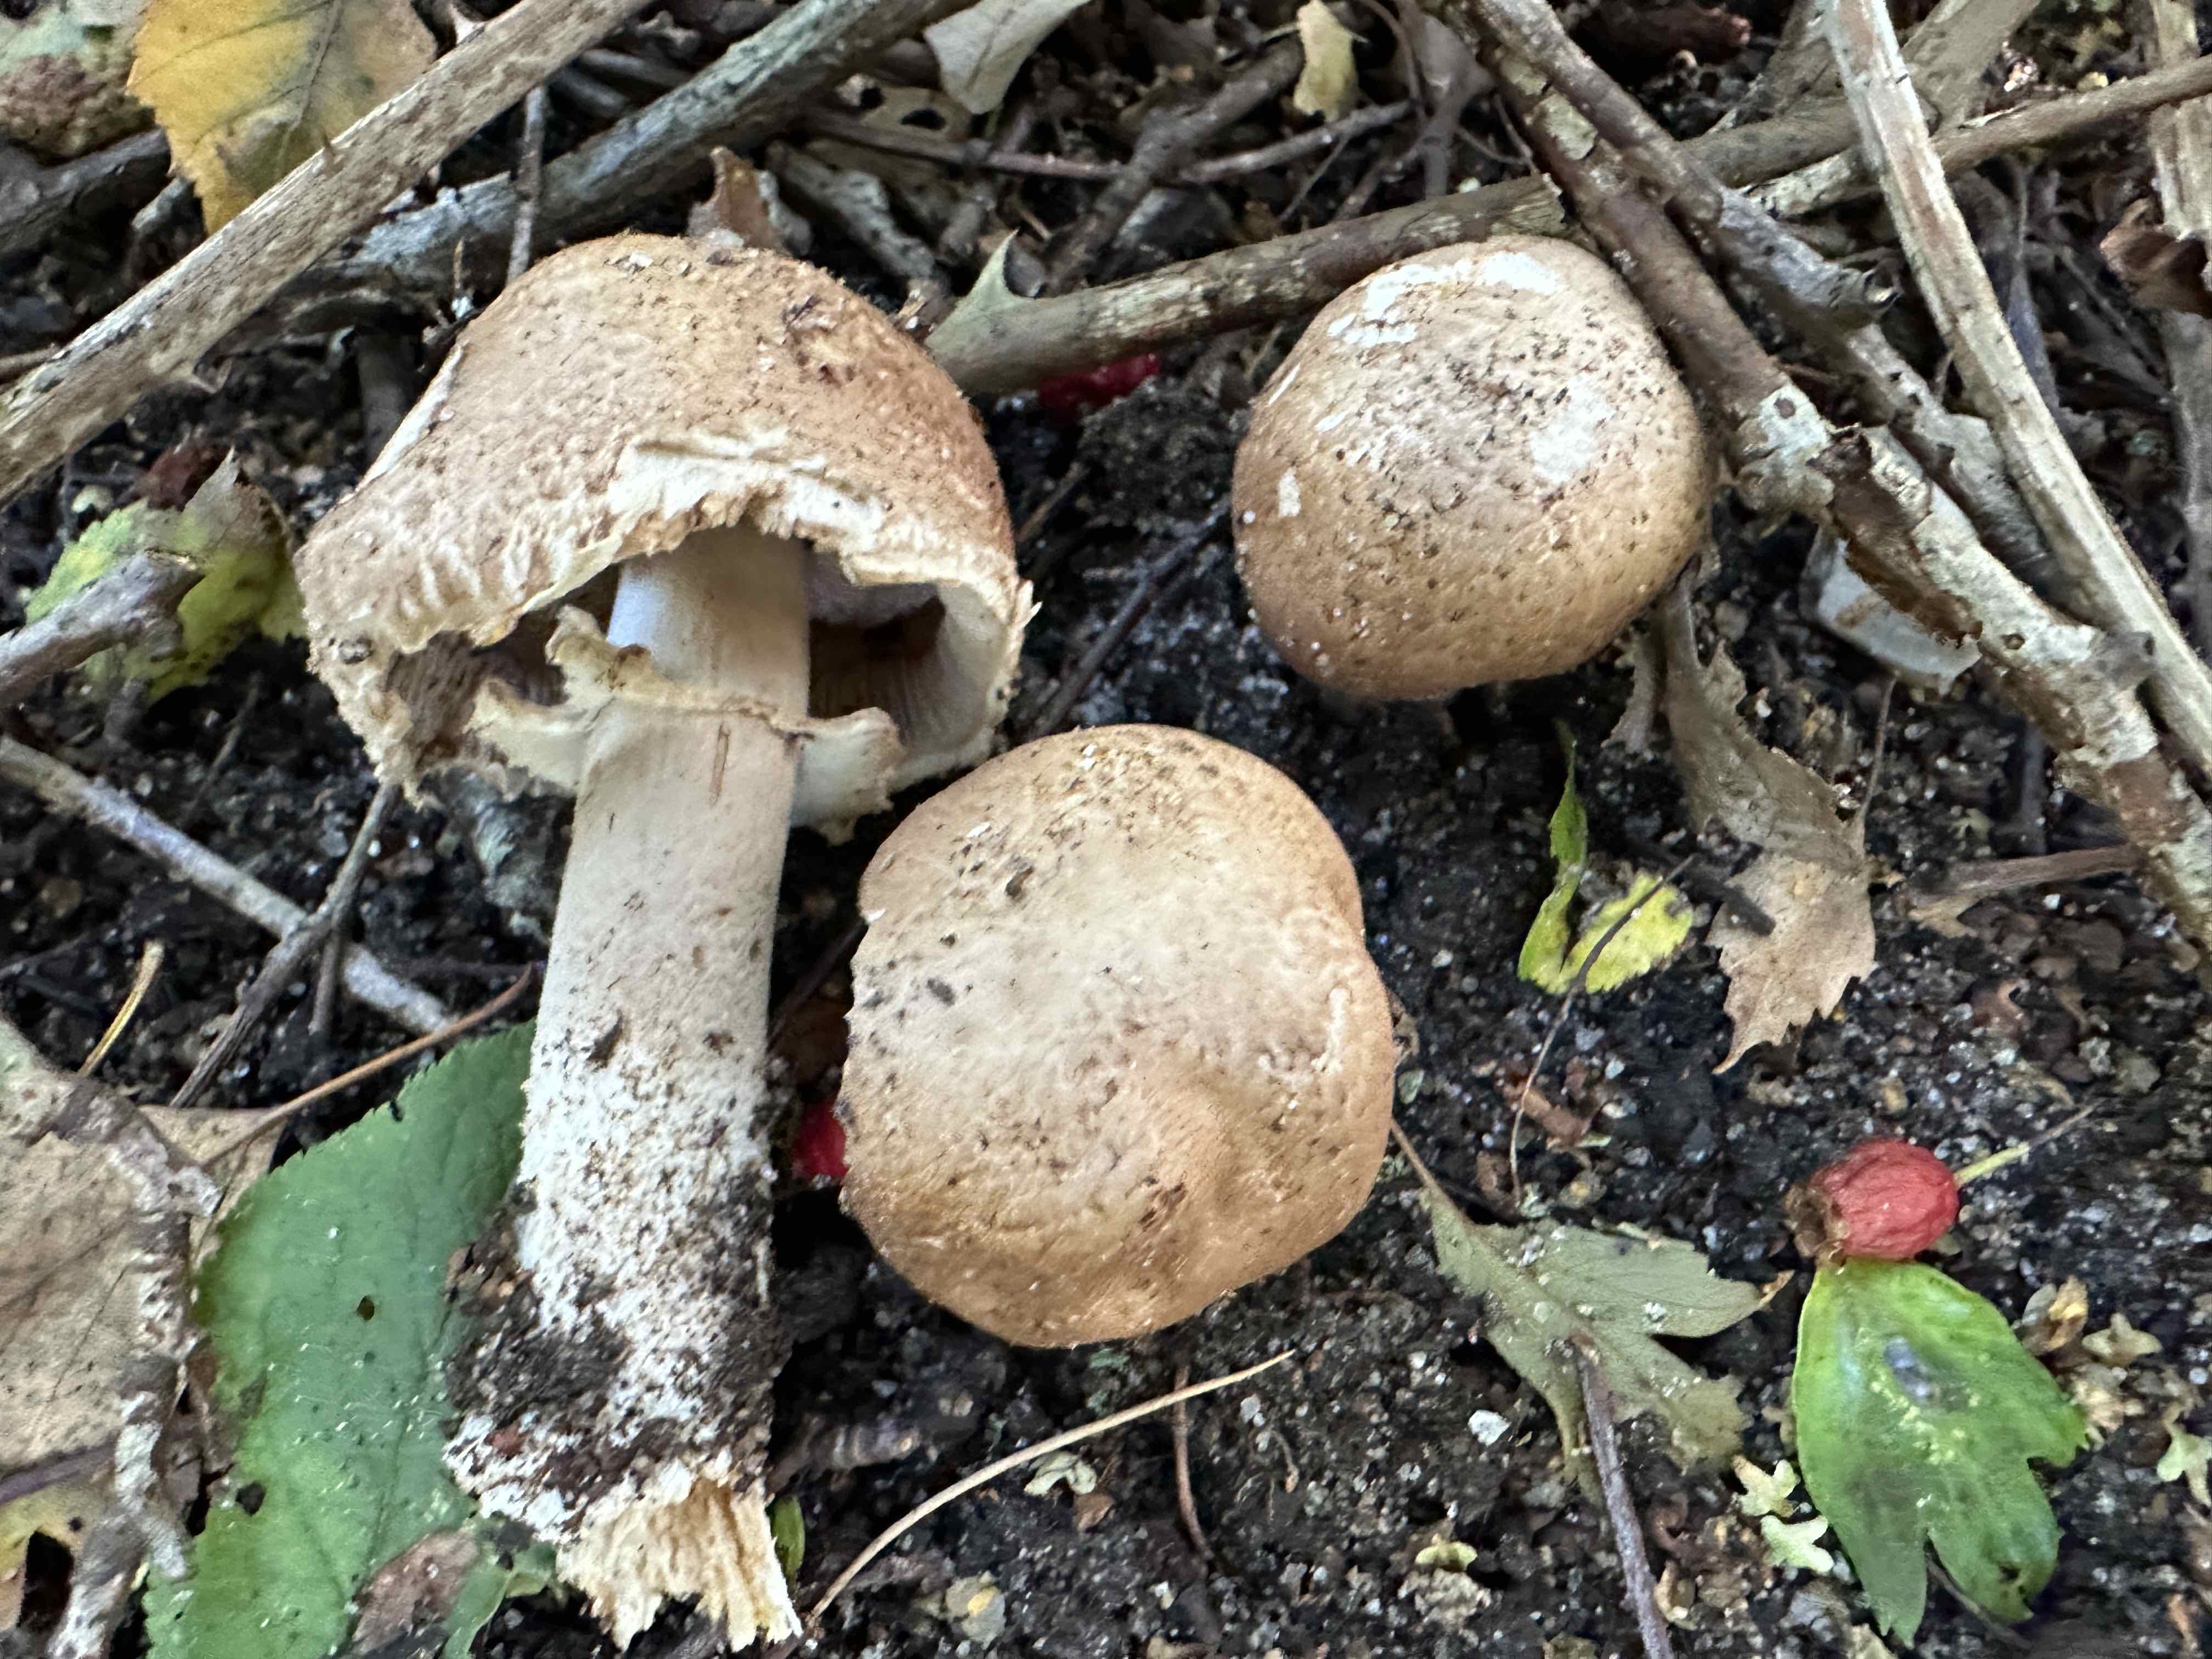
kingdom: Fungi
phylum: Basidiomycota
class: Agaricomycetes
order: Agaricales
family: Agaricaceae
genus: Agaricus
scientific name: Agaricus impudicus
